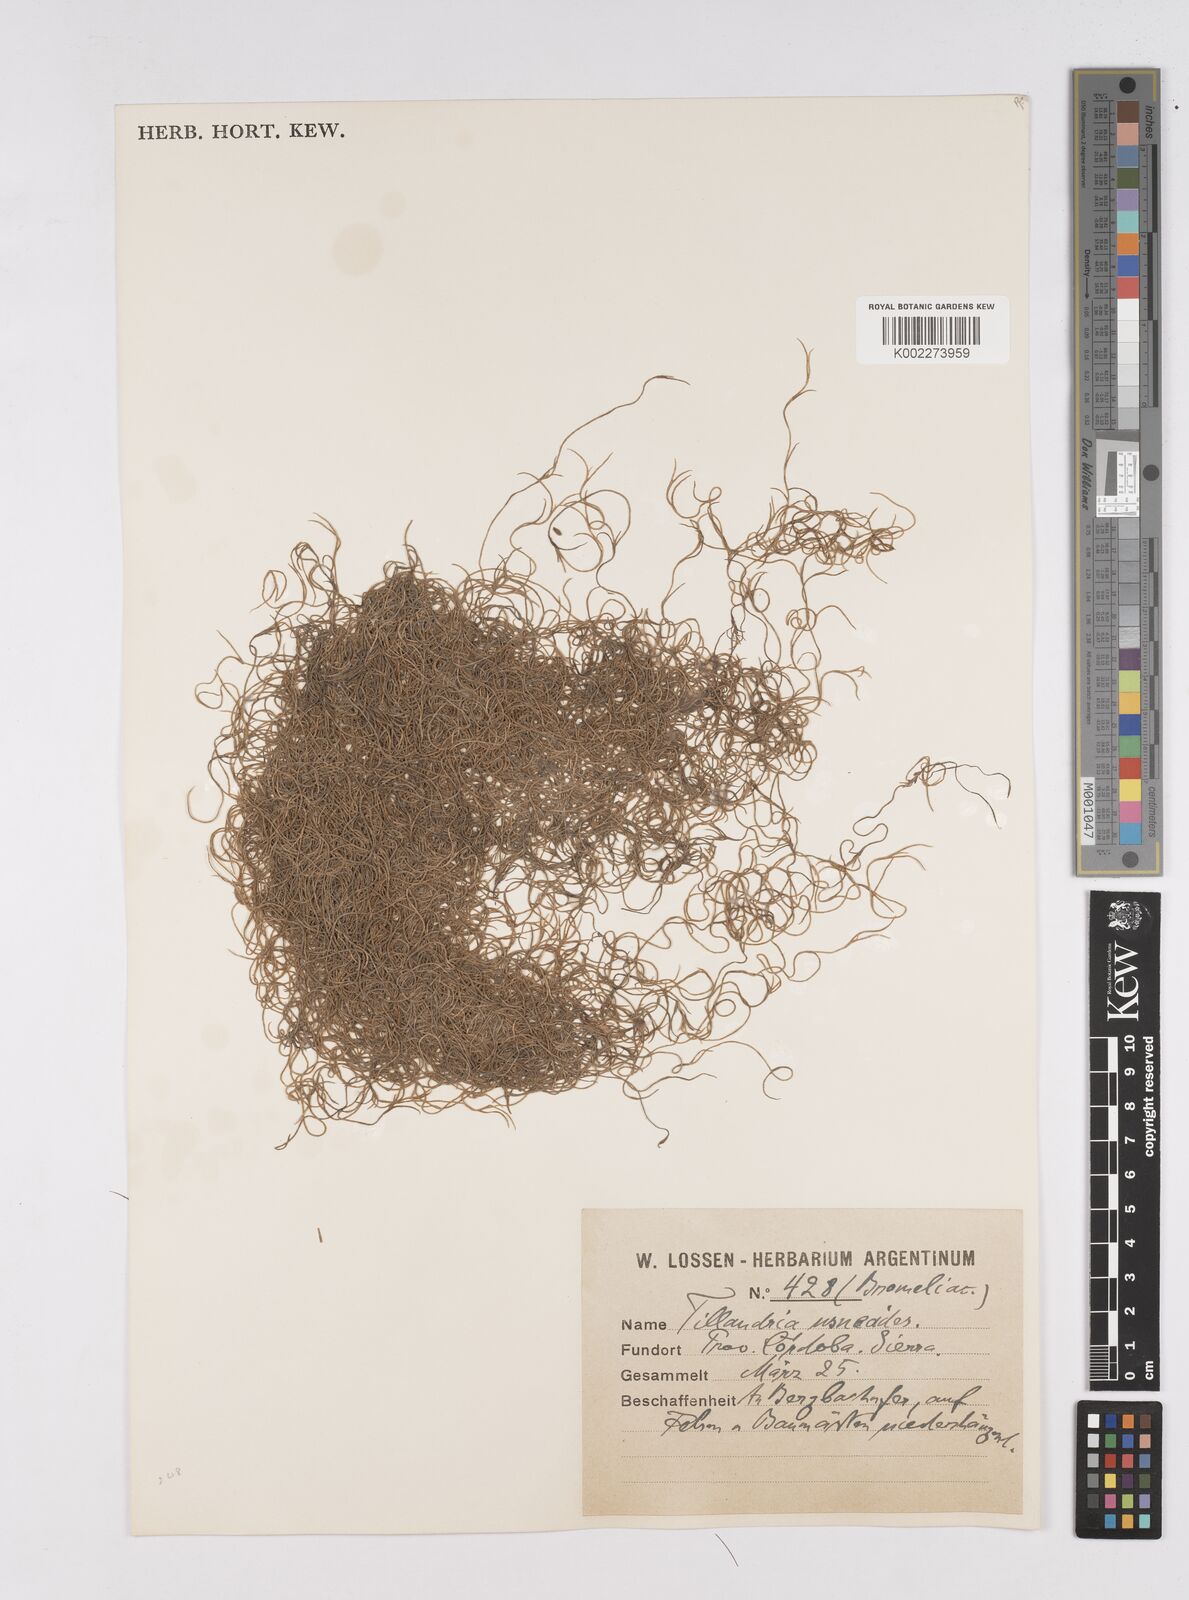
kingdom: Plantae
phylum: Tracheophyta
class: Liliopsida
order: Poales
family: Bromeliaceae
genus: Tillandsia
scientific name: Tillandsia usneoides
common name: Spanish moss
